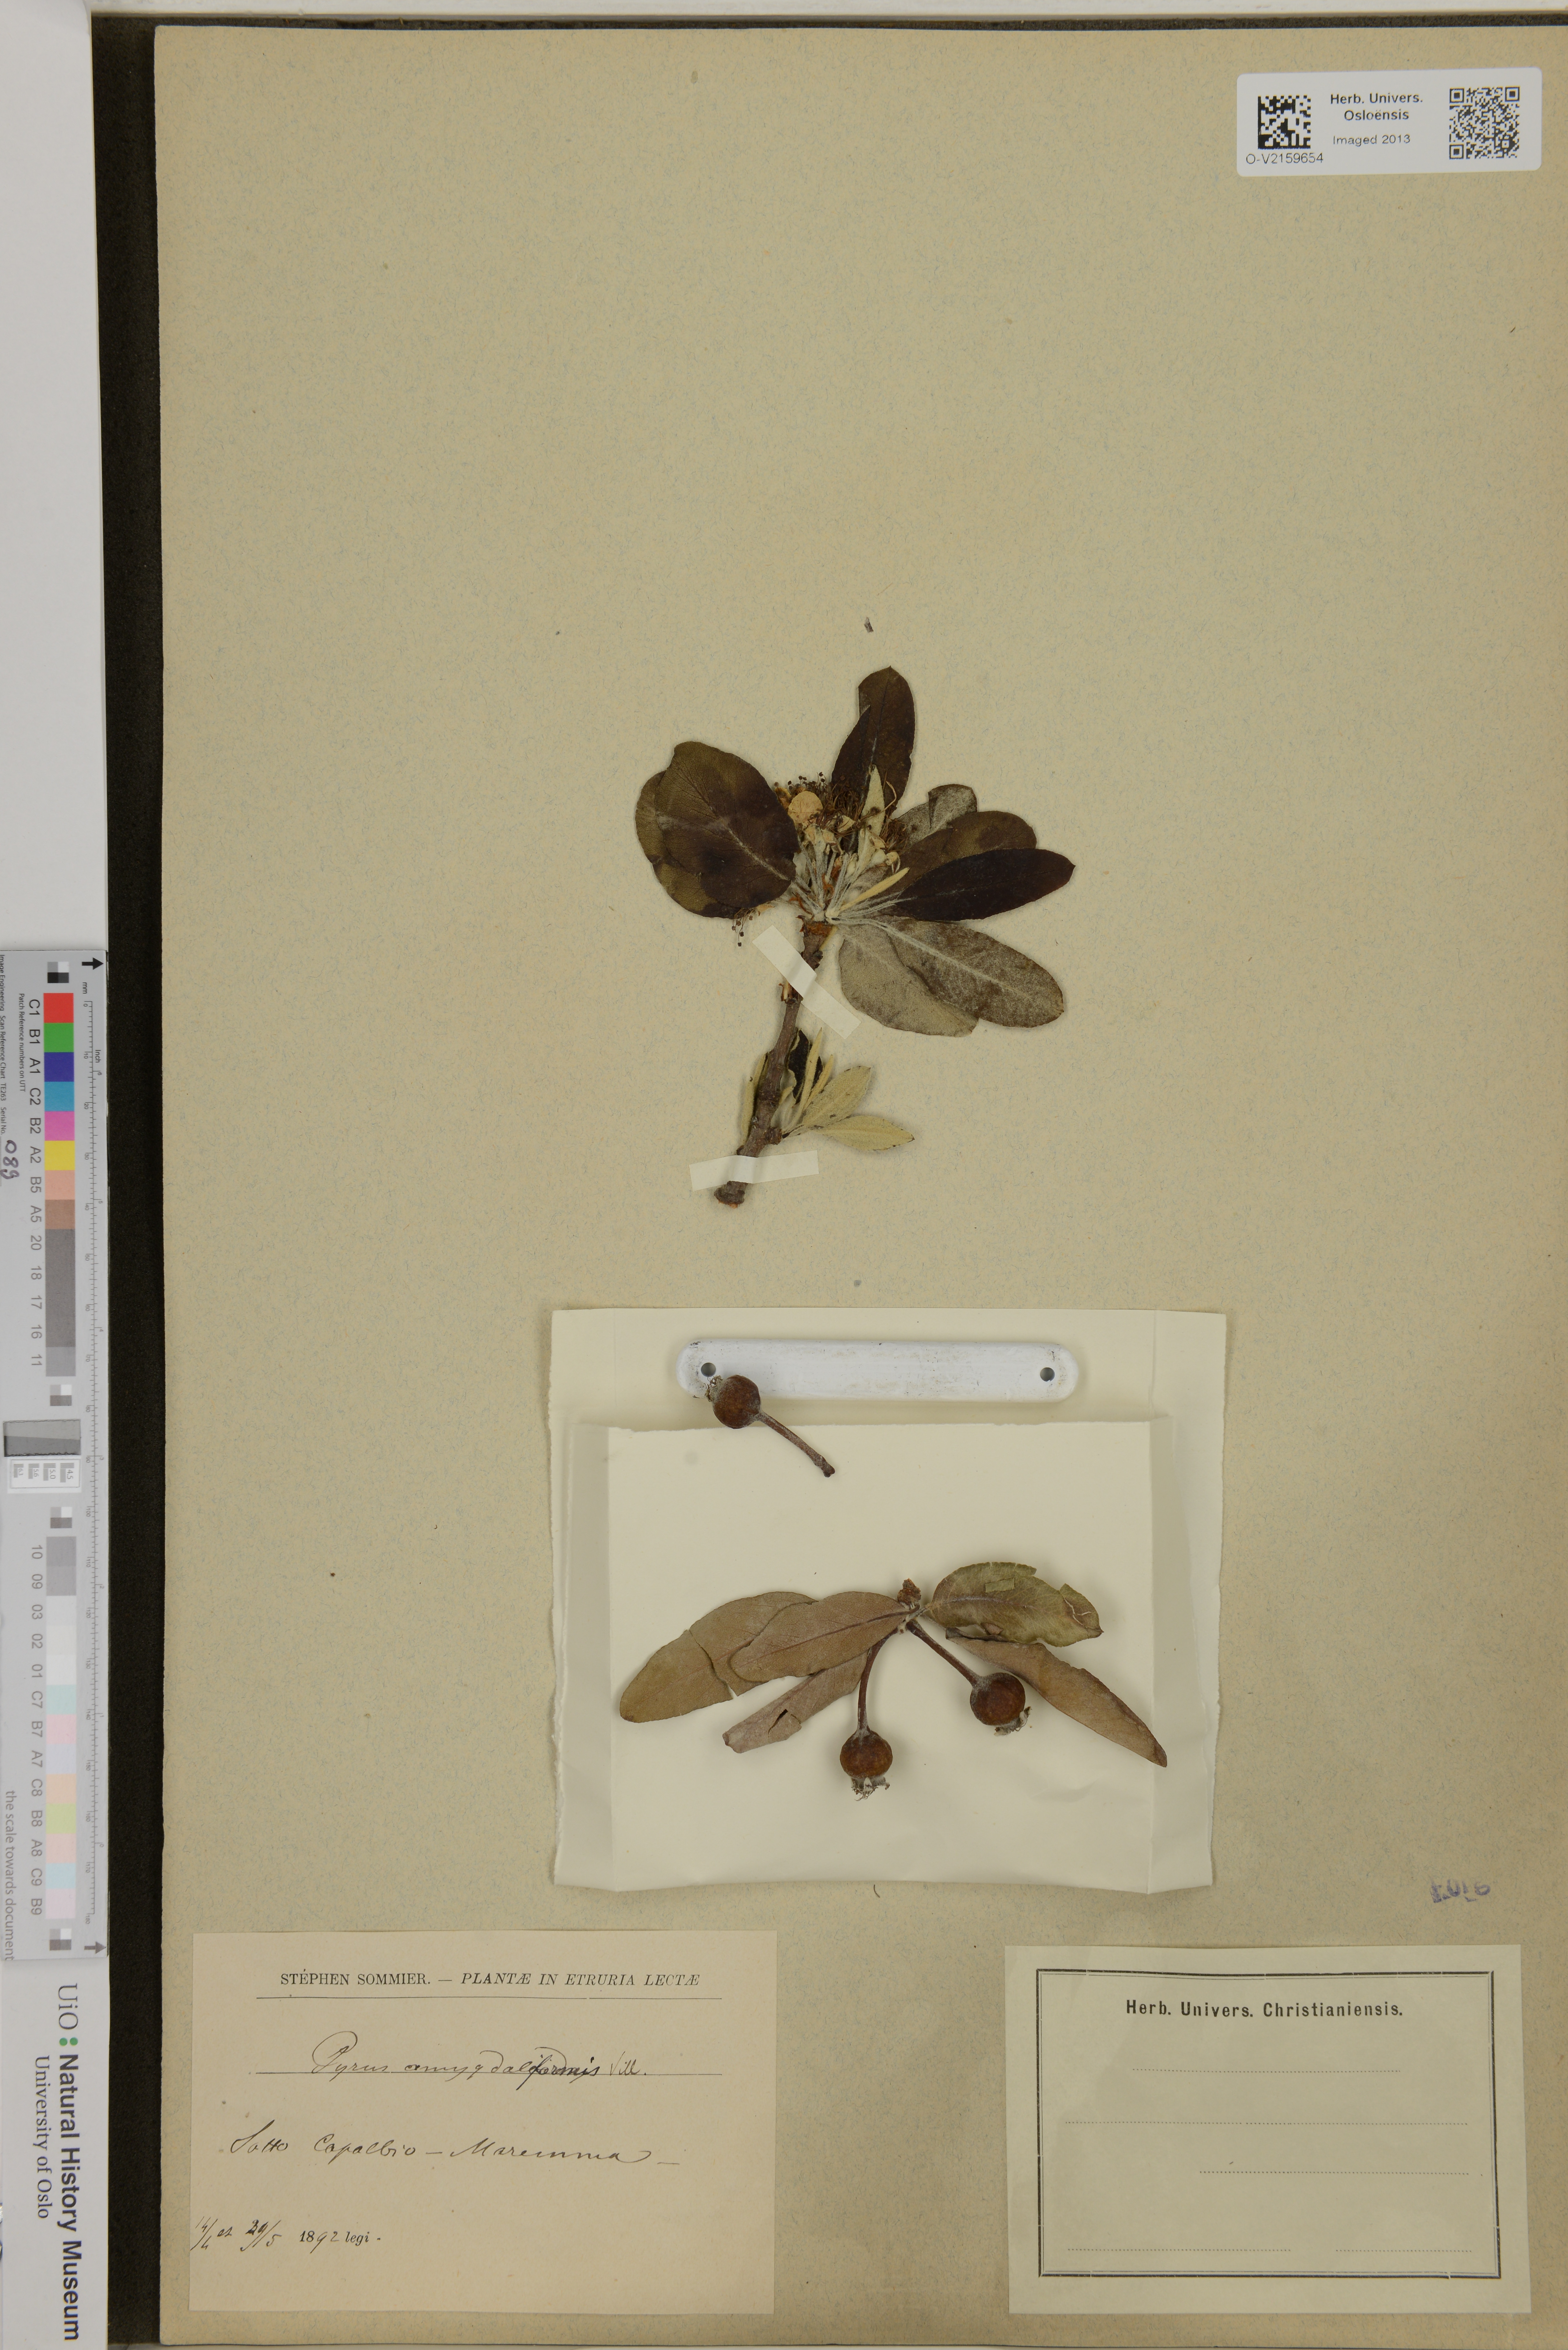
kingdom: Plantae
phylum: Tracheophyta
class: Magnoliopsida
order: Rosales
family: Rosaceae
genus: Pyrus
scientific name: Pyrus spinosa
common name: Almond-leaf pear
